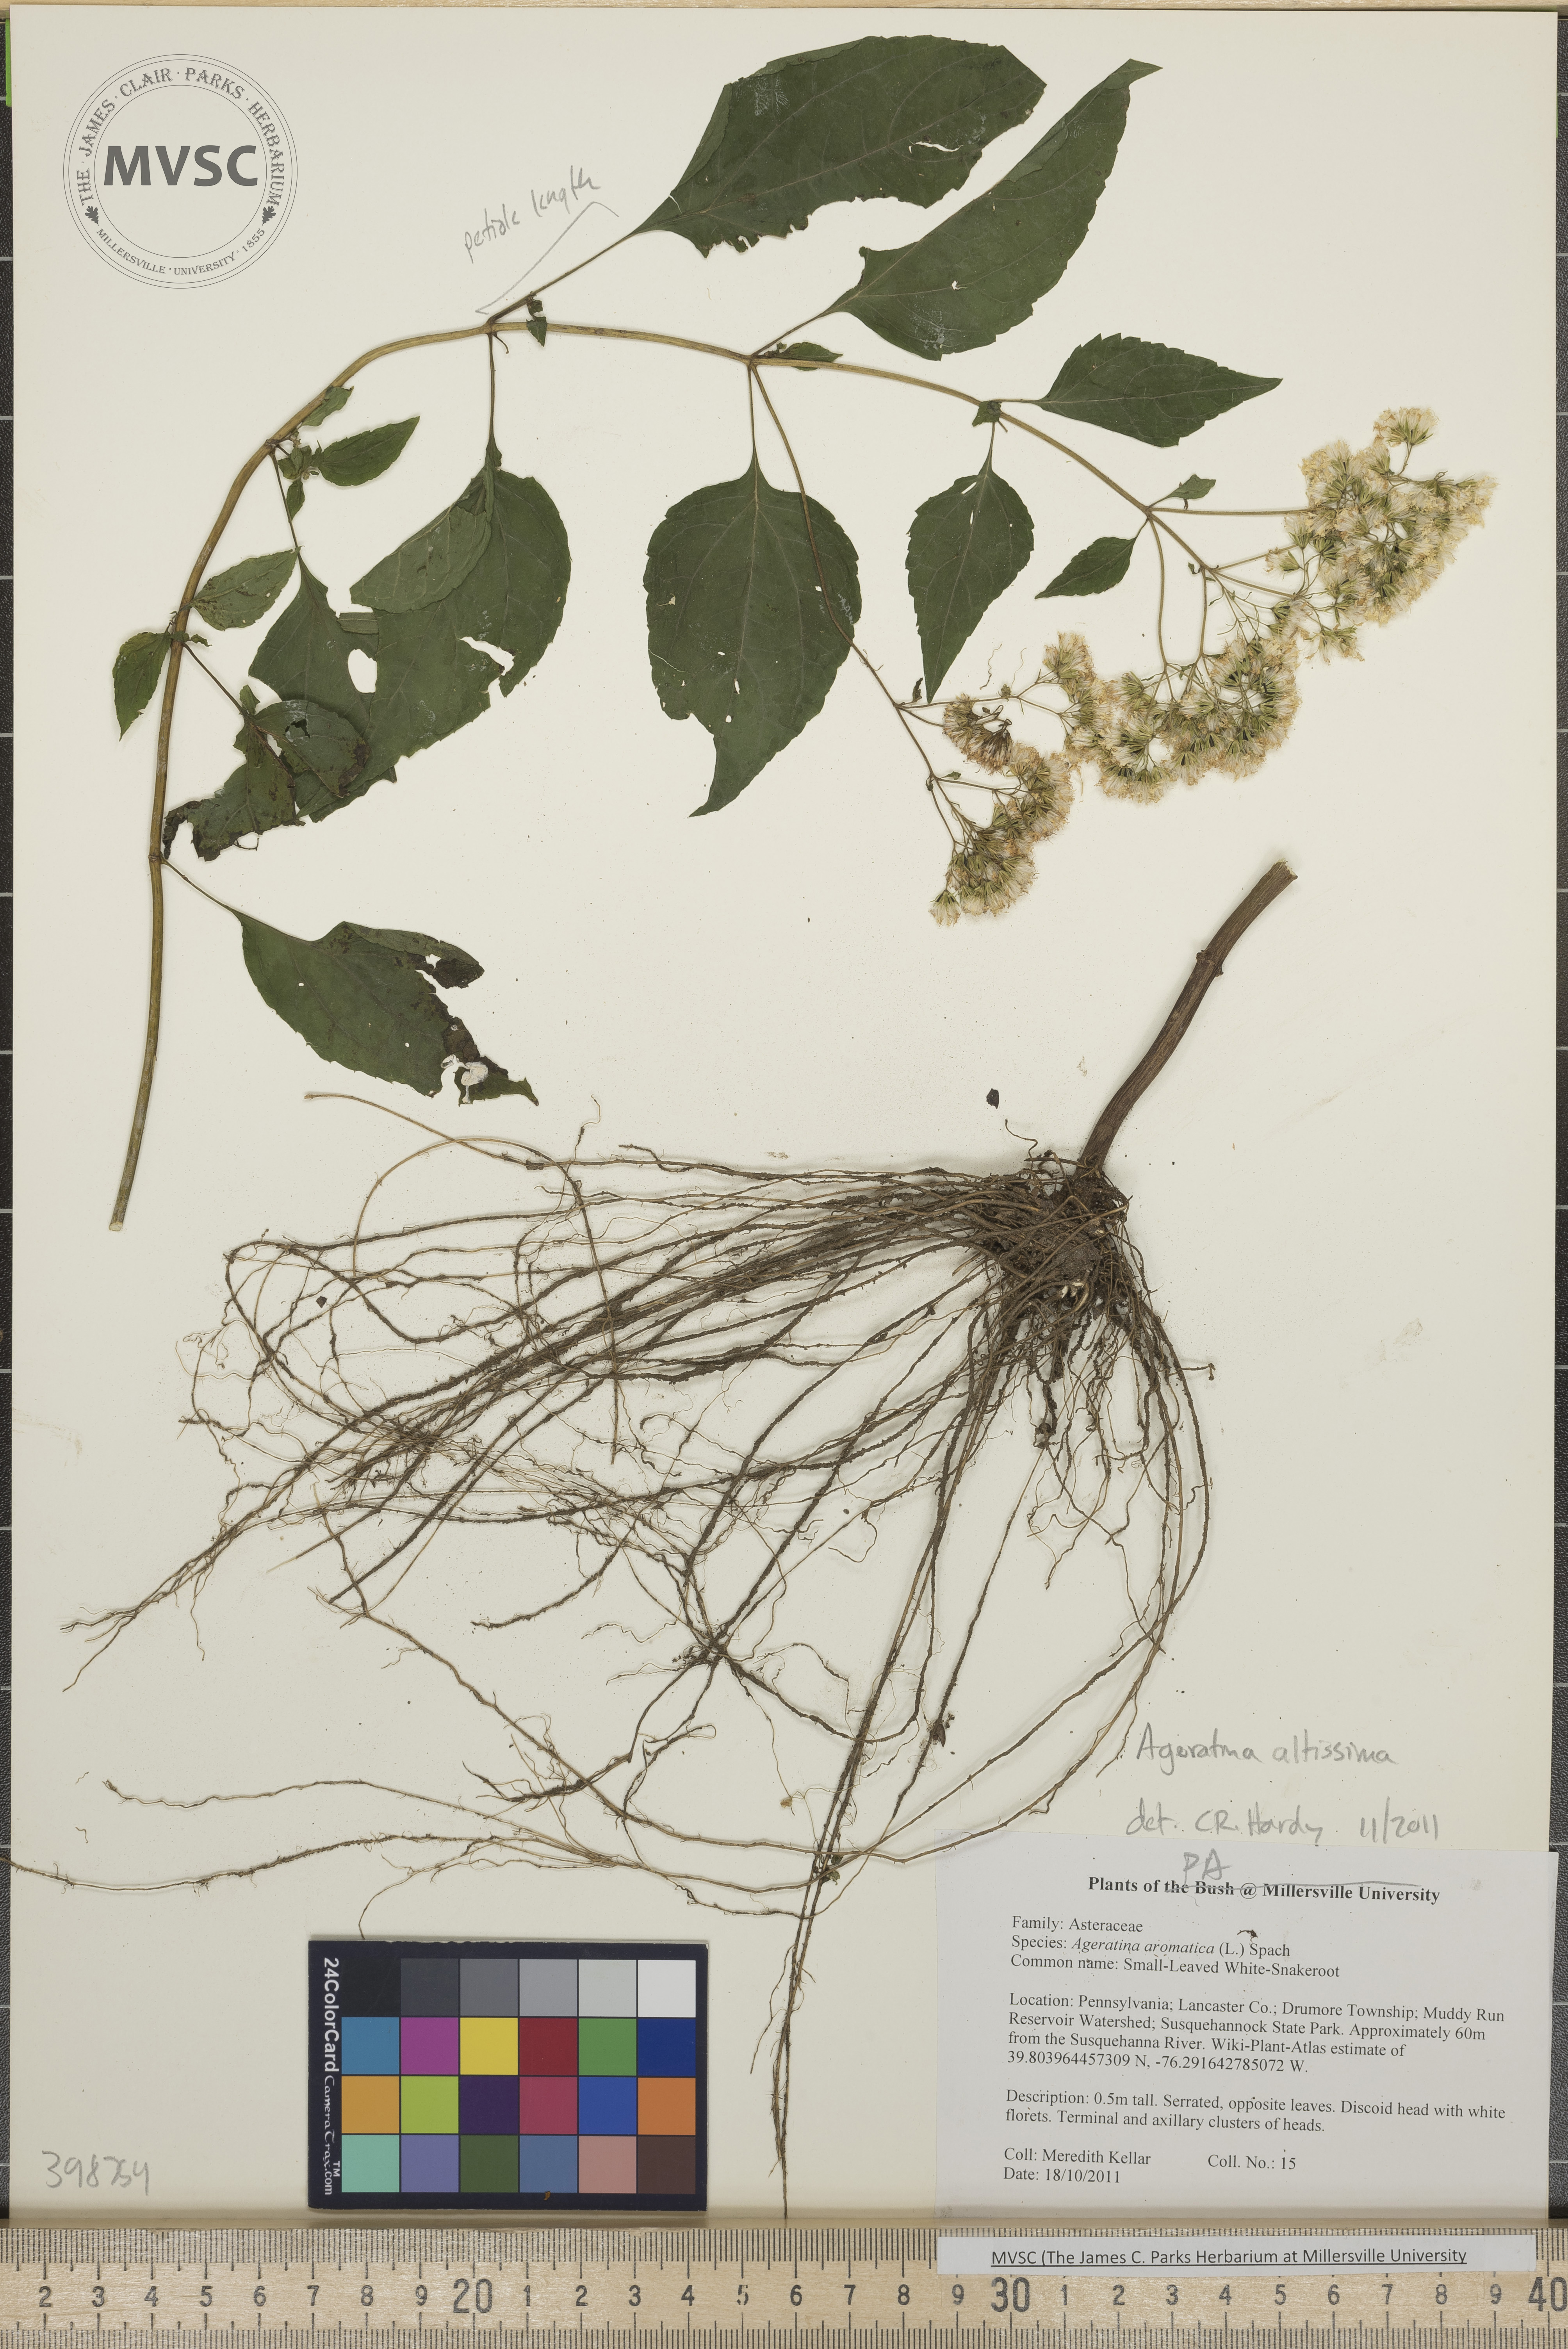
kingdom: Plantae
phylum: Tracheophyta
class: Magnoliopsida
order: Asterales
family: Asteraceae
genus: Ageratina
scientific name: Ageratina altissima
